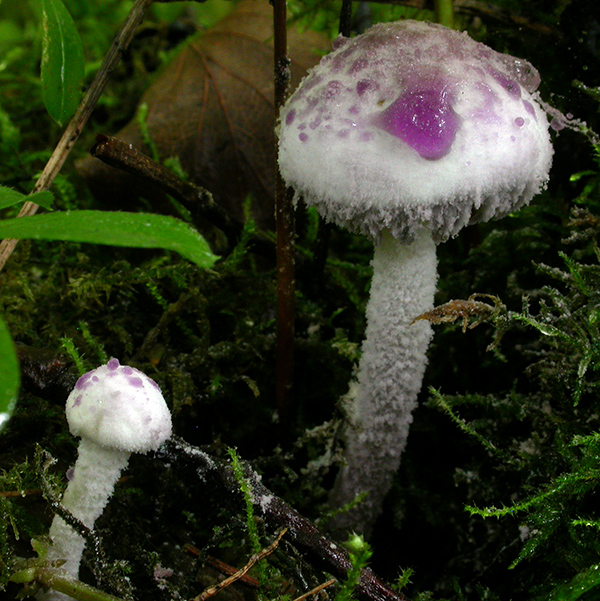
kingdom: Fungi
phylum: Basidiomycota
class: Agaricomycetes
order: Agaricales
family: Agaricaceae
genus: Cystolepiota
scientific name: Cystolepiota bucknallii
